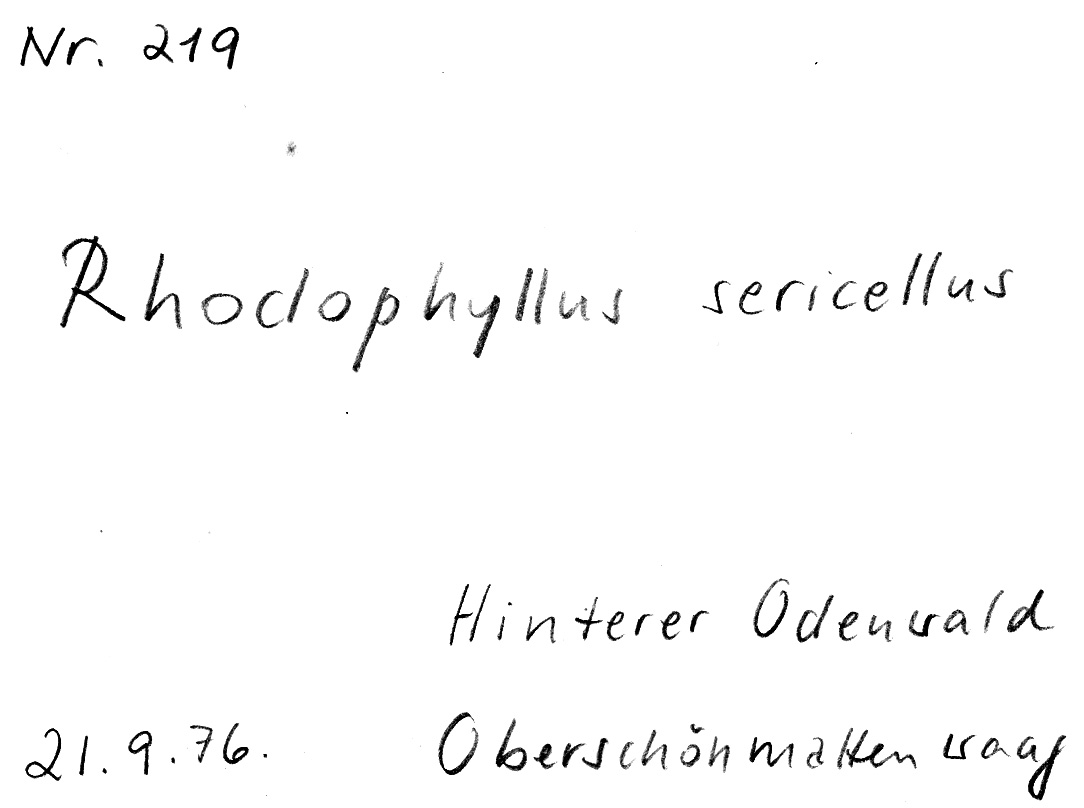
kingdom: Fungi
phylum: Basidiomycota
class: Agaricomycetes
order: Agaricales
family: Entolomataceae
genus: Entoloma
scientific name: Entoloma sericellum
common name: Cream pinkgill
